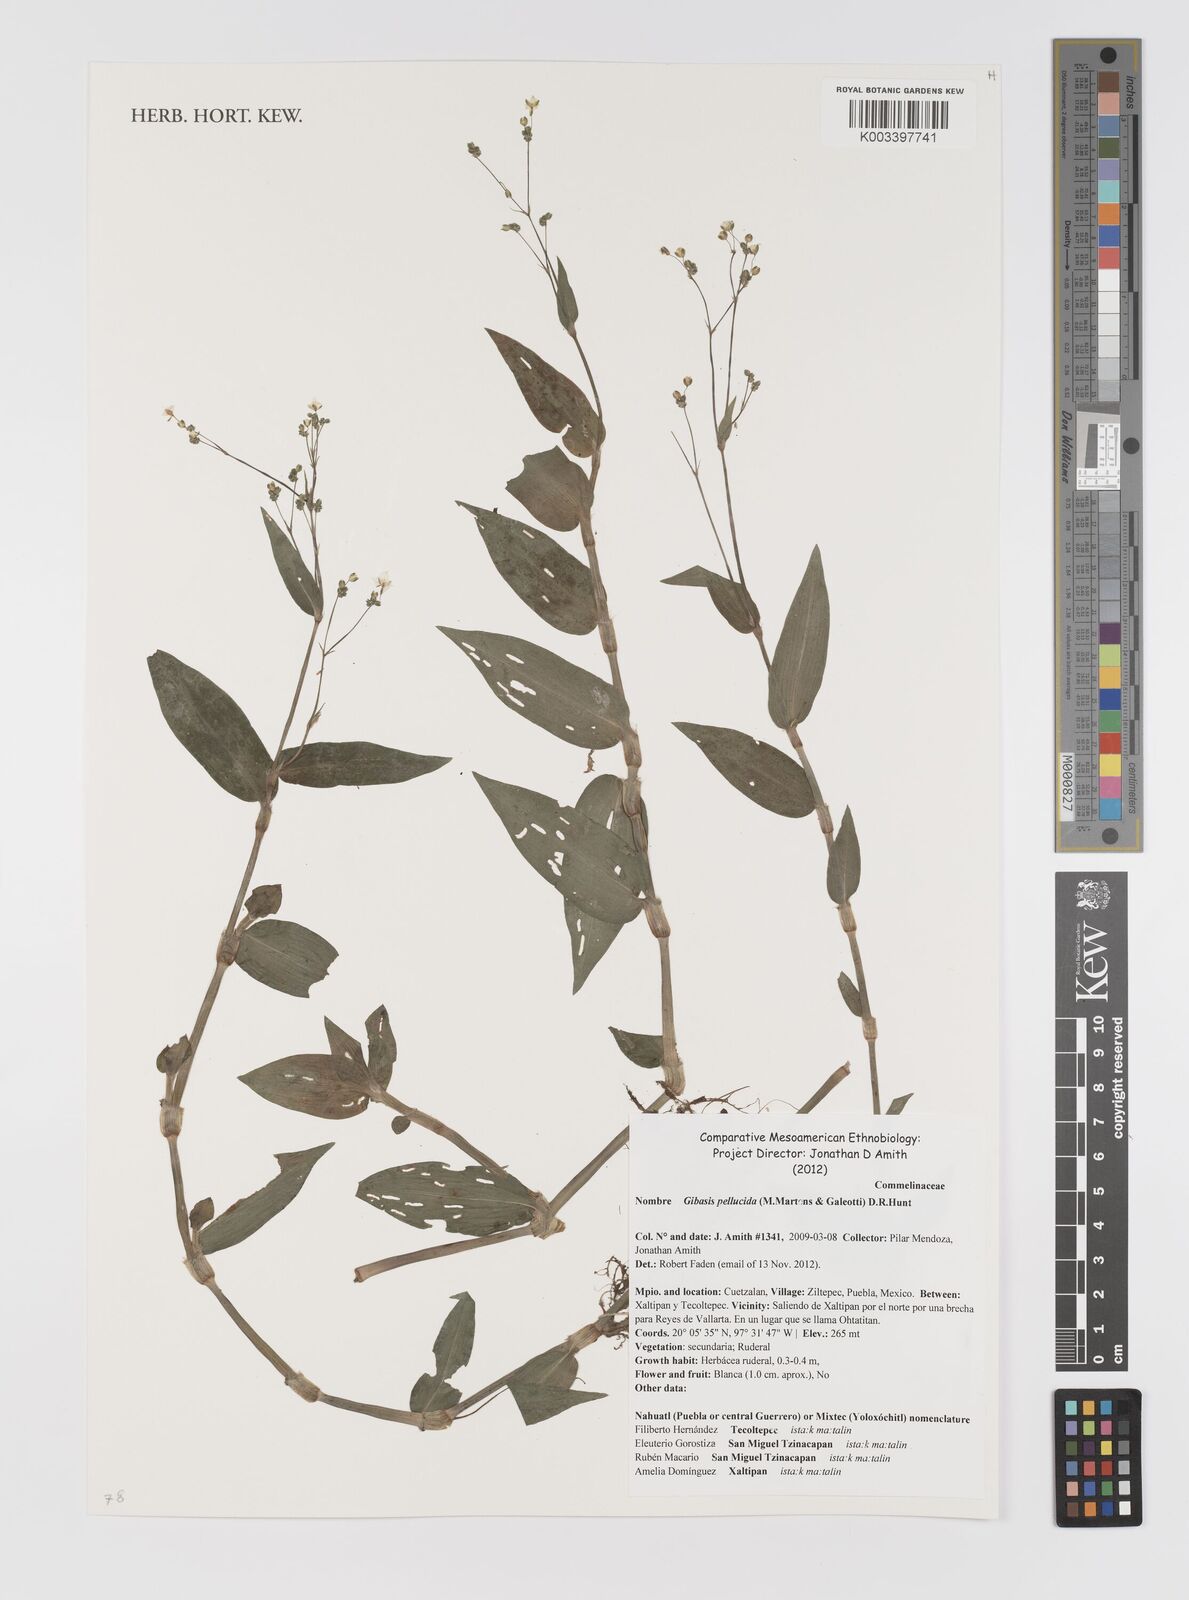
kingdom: Plantae
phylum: Tracheophyta
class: Liliopsida
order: Commelinales
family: Commelinaceae
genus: Gibasis
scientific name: Gibasis pellucida
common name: Dotted bridalveil
